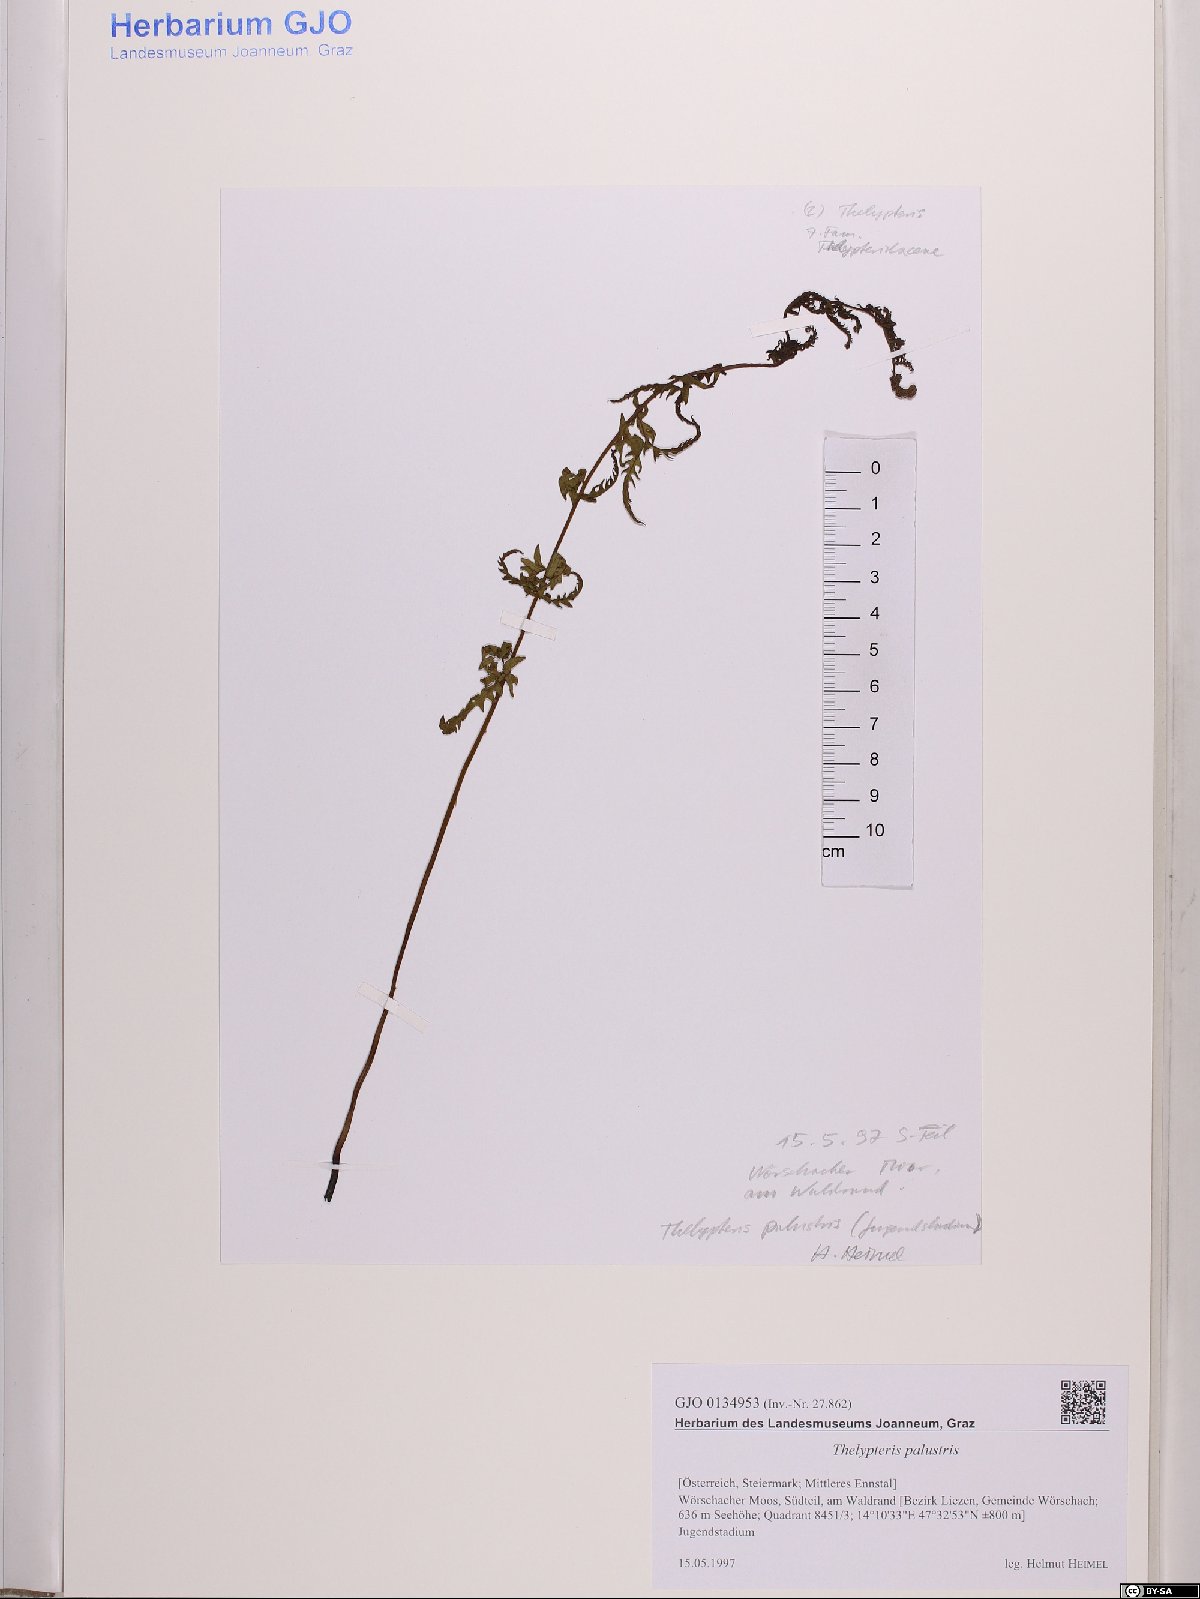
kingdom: Plantae
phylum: Tracheophyta
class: Polypodiopsida
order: Polypodiales
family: Thelypteridaceae
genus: Thelypteris
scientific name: Thelypteris palustris
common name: Marsh fern
